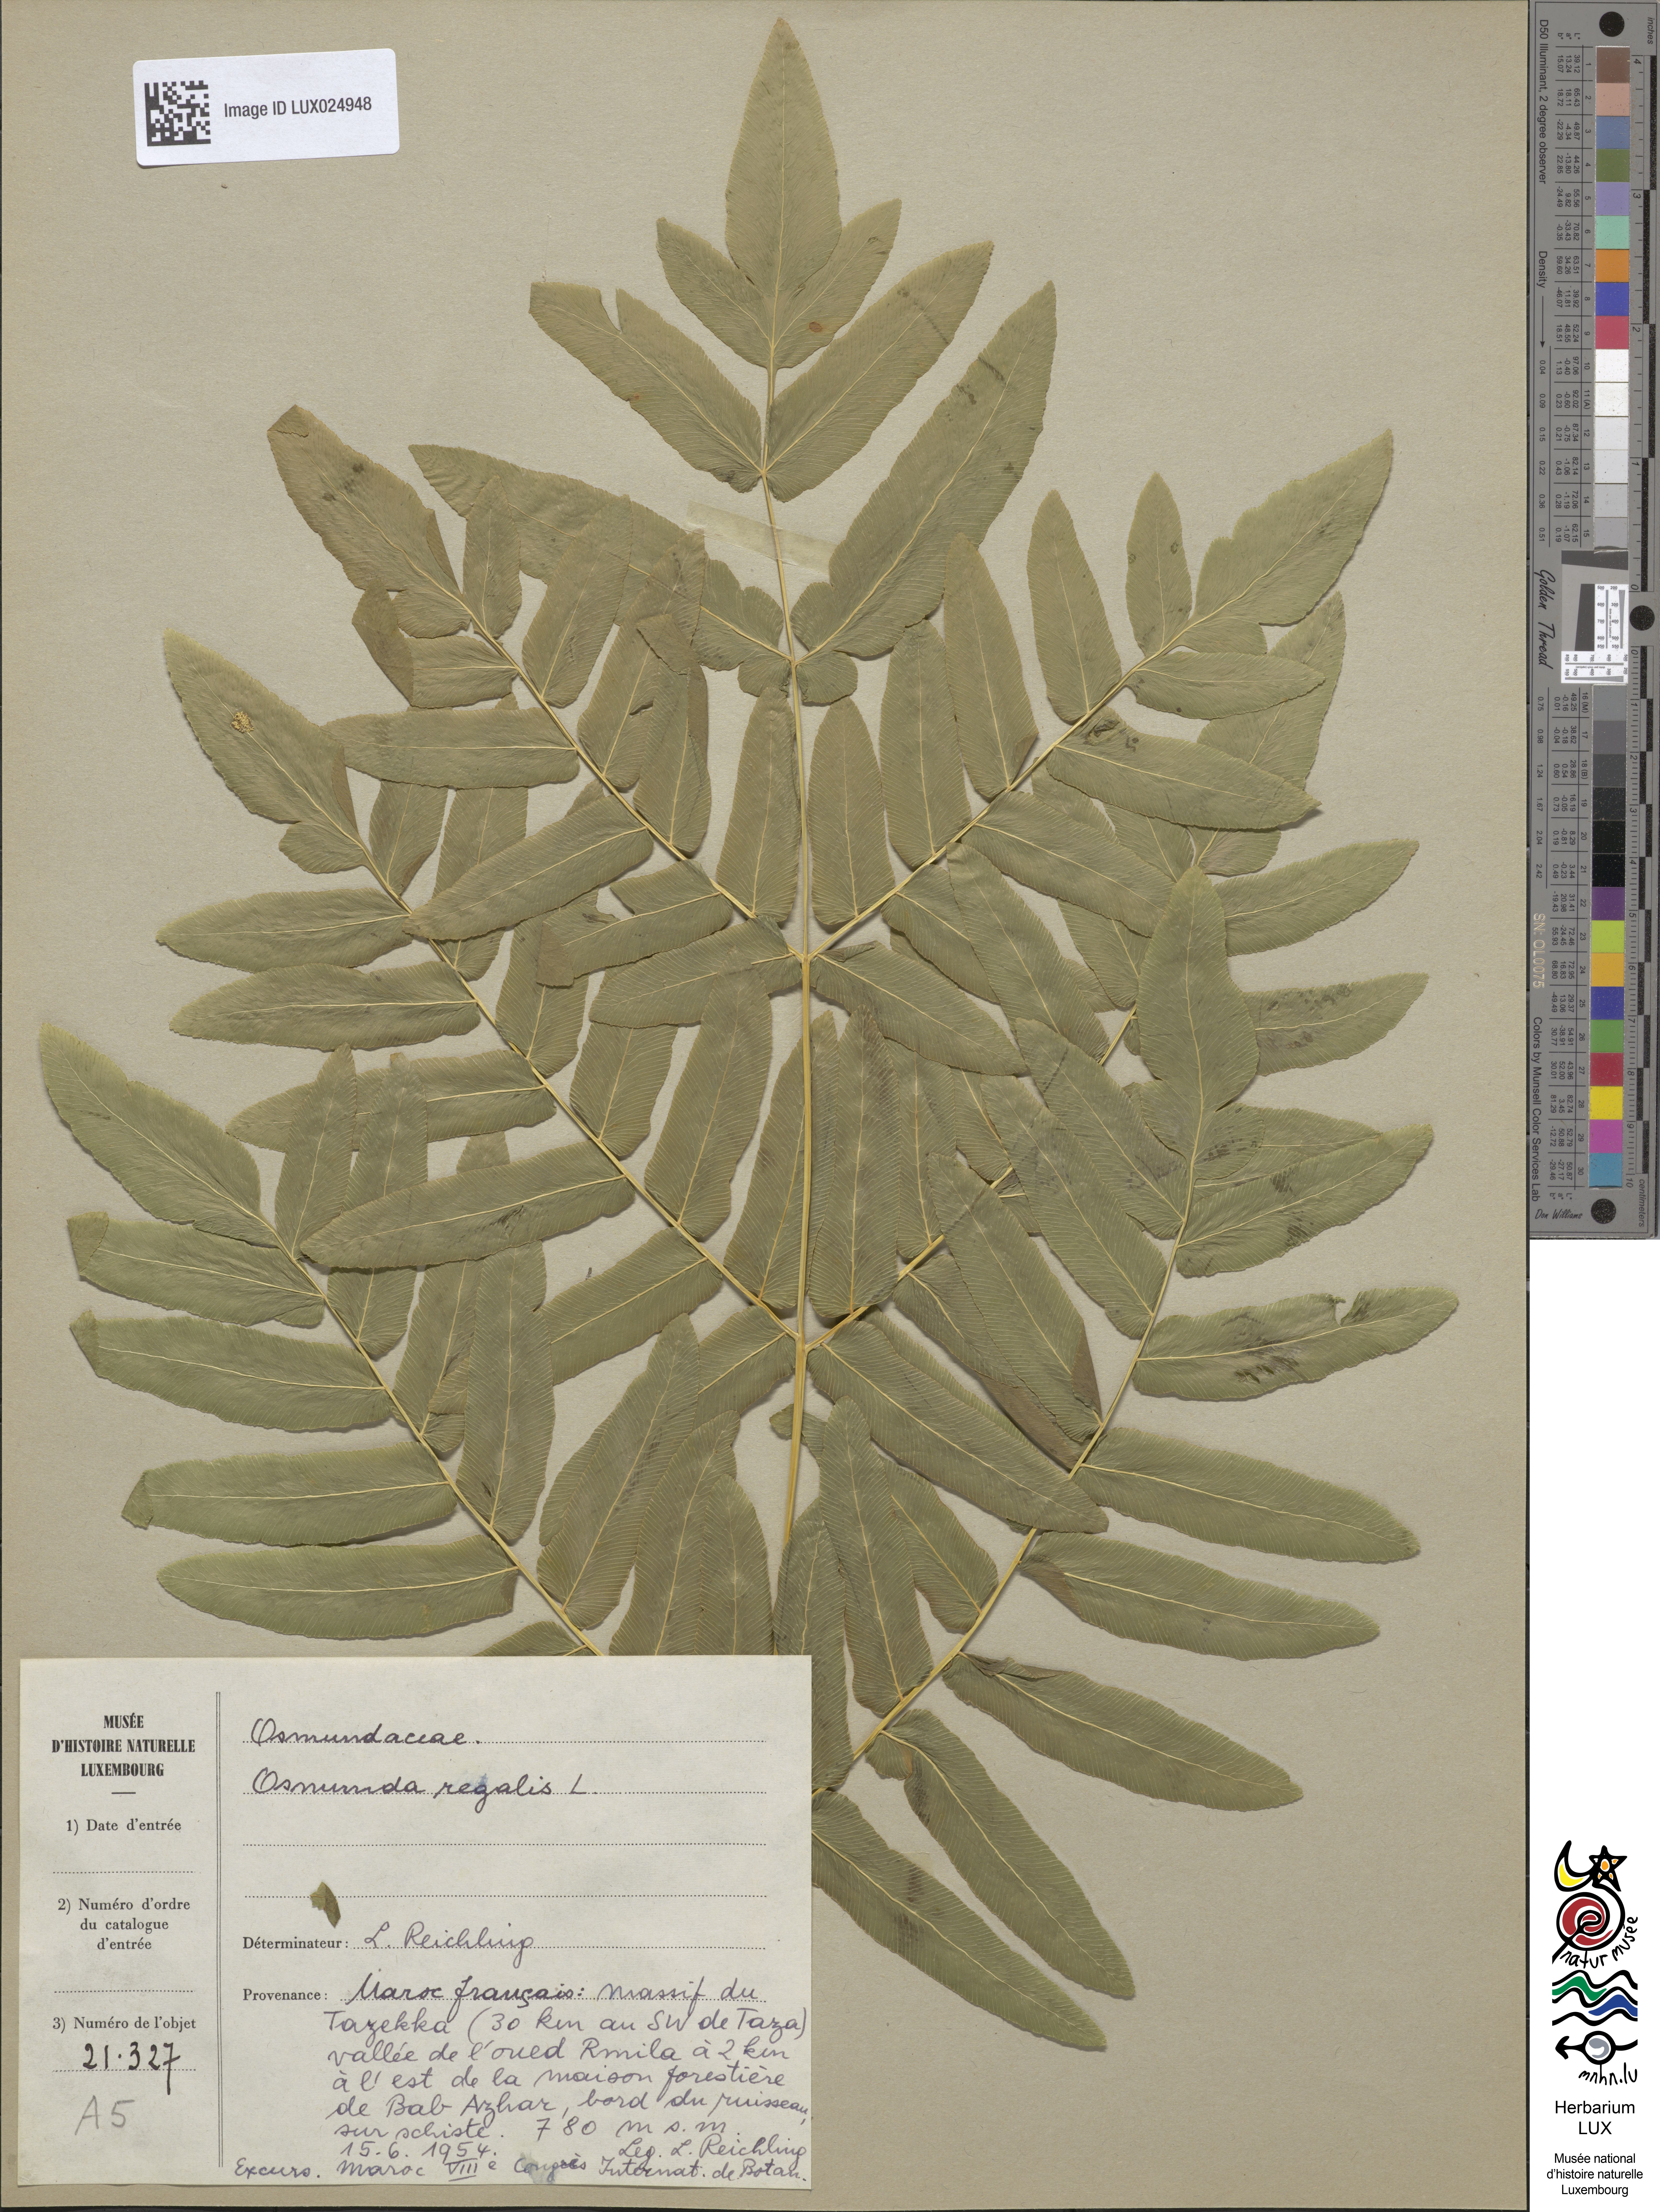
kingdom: Plantae
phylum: Tracheophyta
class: Polypodiopsida
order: Osmundales
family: Osmundaceae
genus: Osmunda
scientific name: Osmunda regalis
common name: Royal fern
